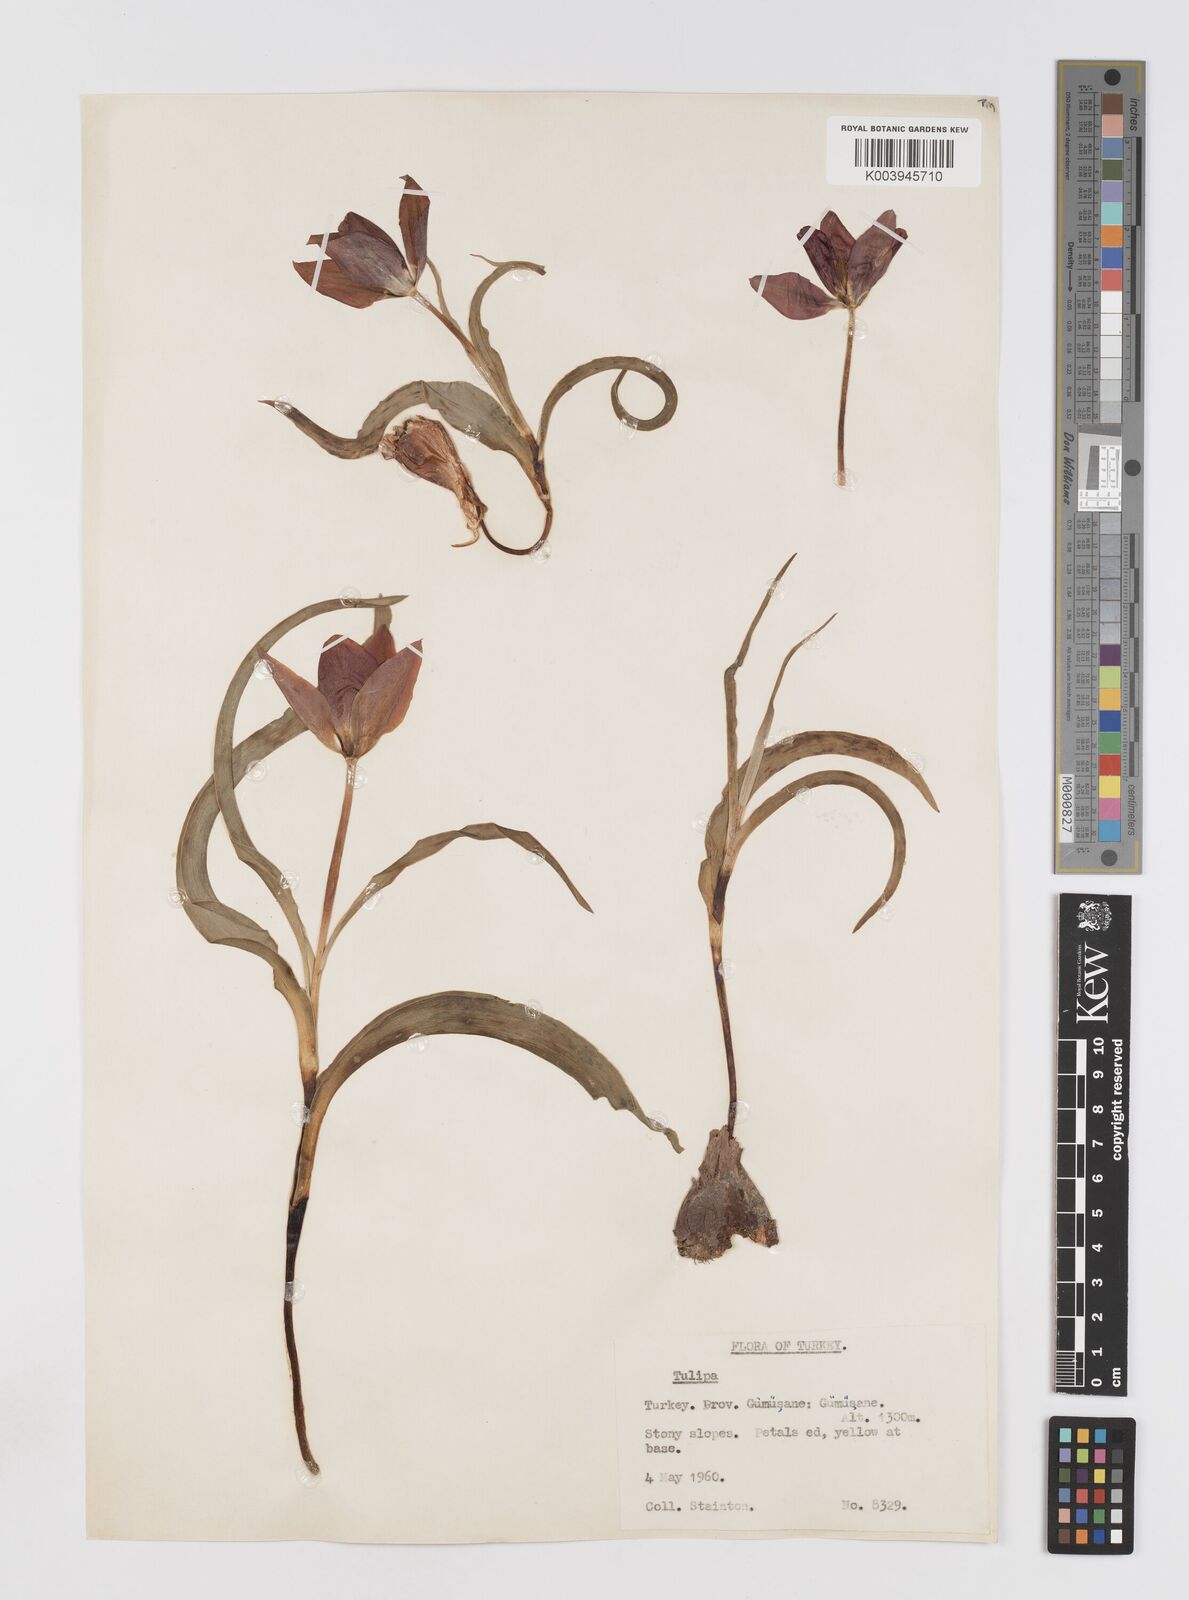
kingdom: Plantae
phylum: Tracheophyta
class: Liliopsida
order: Liliales
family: Liliaceae
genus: Tulipa
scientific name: Tulipa armena
